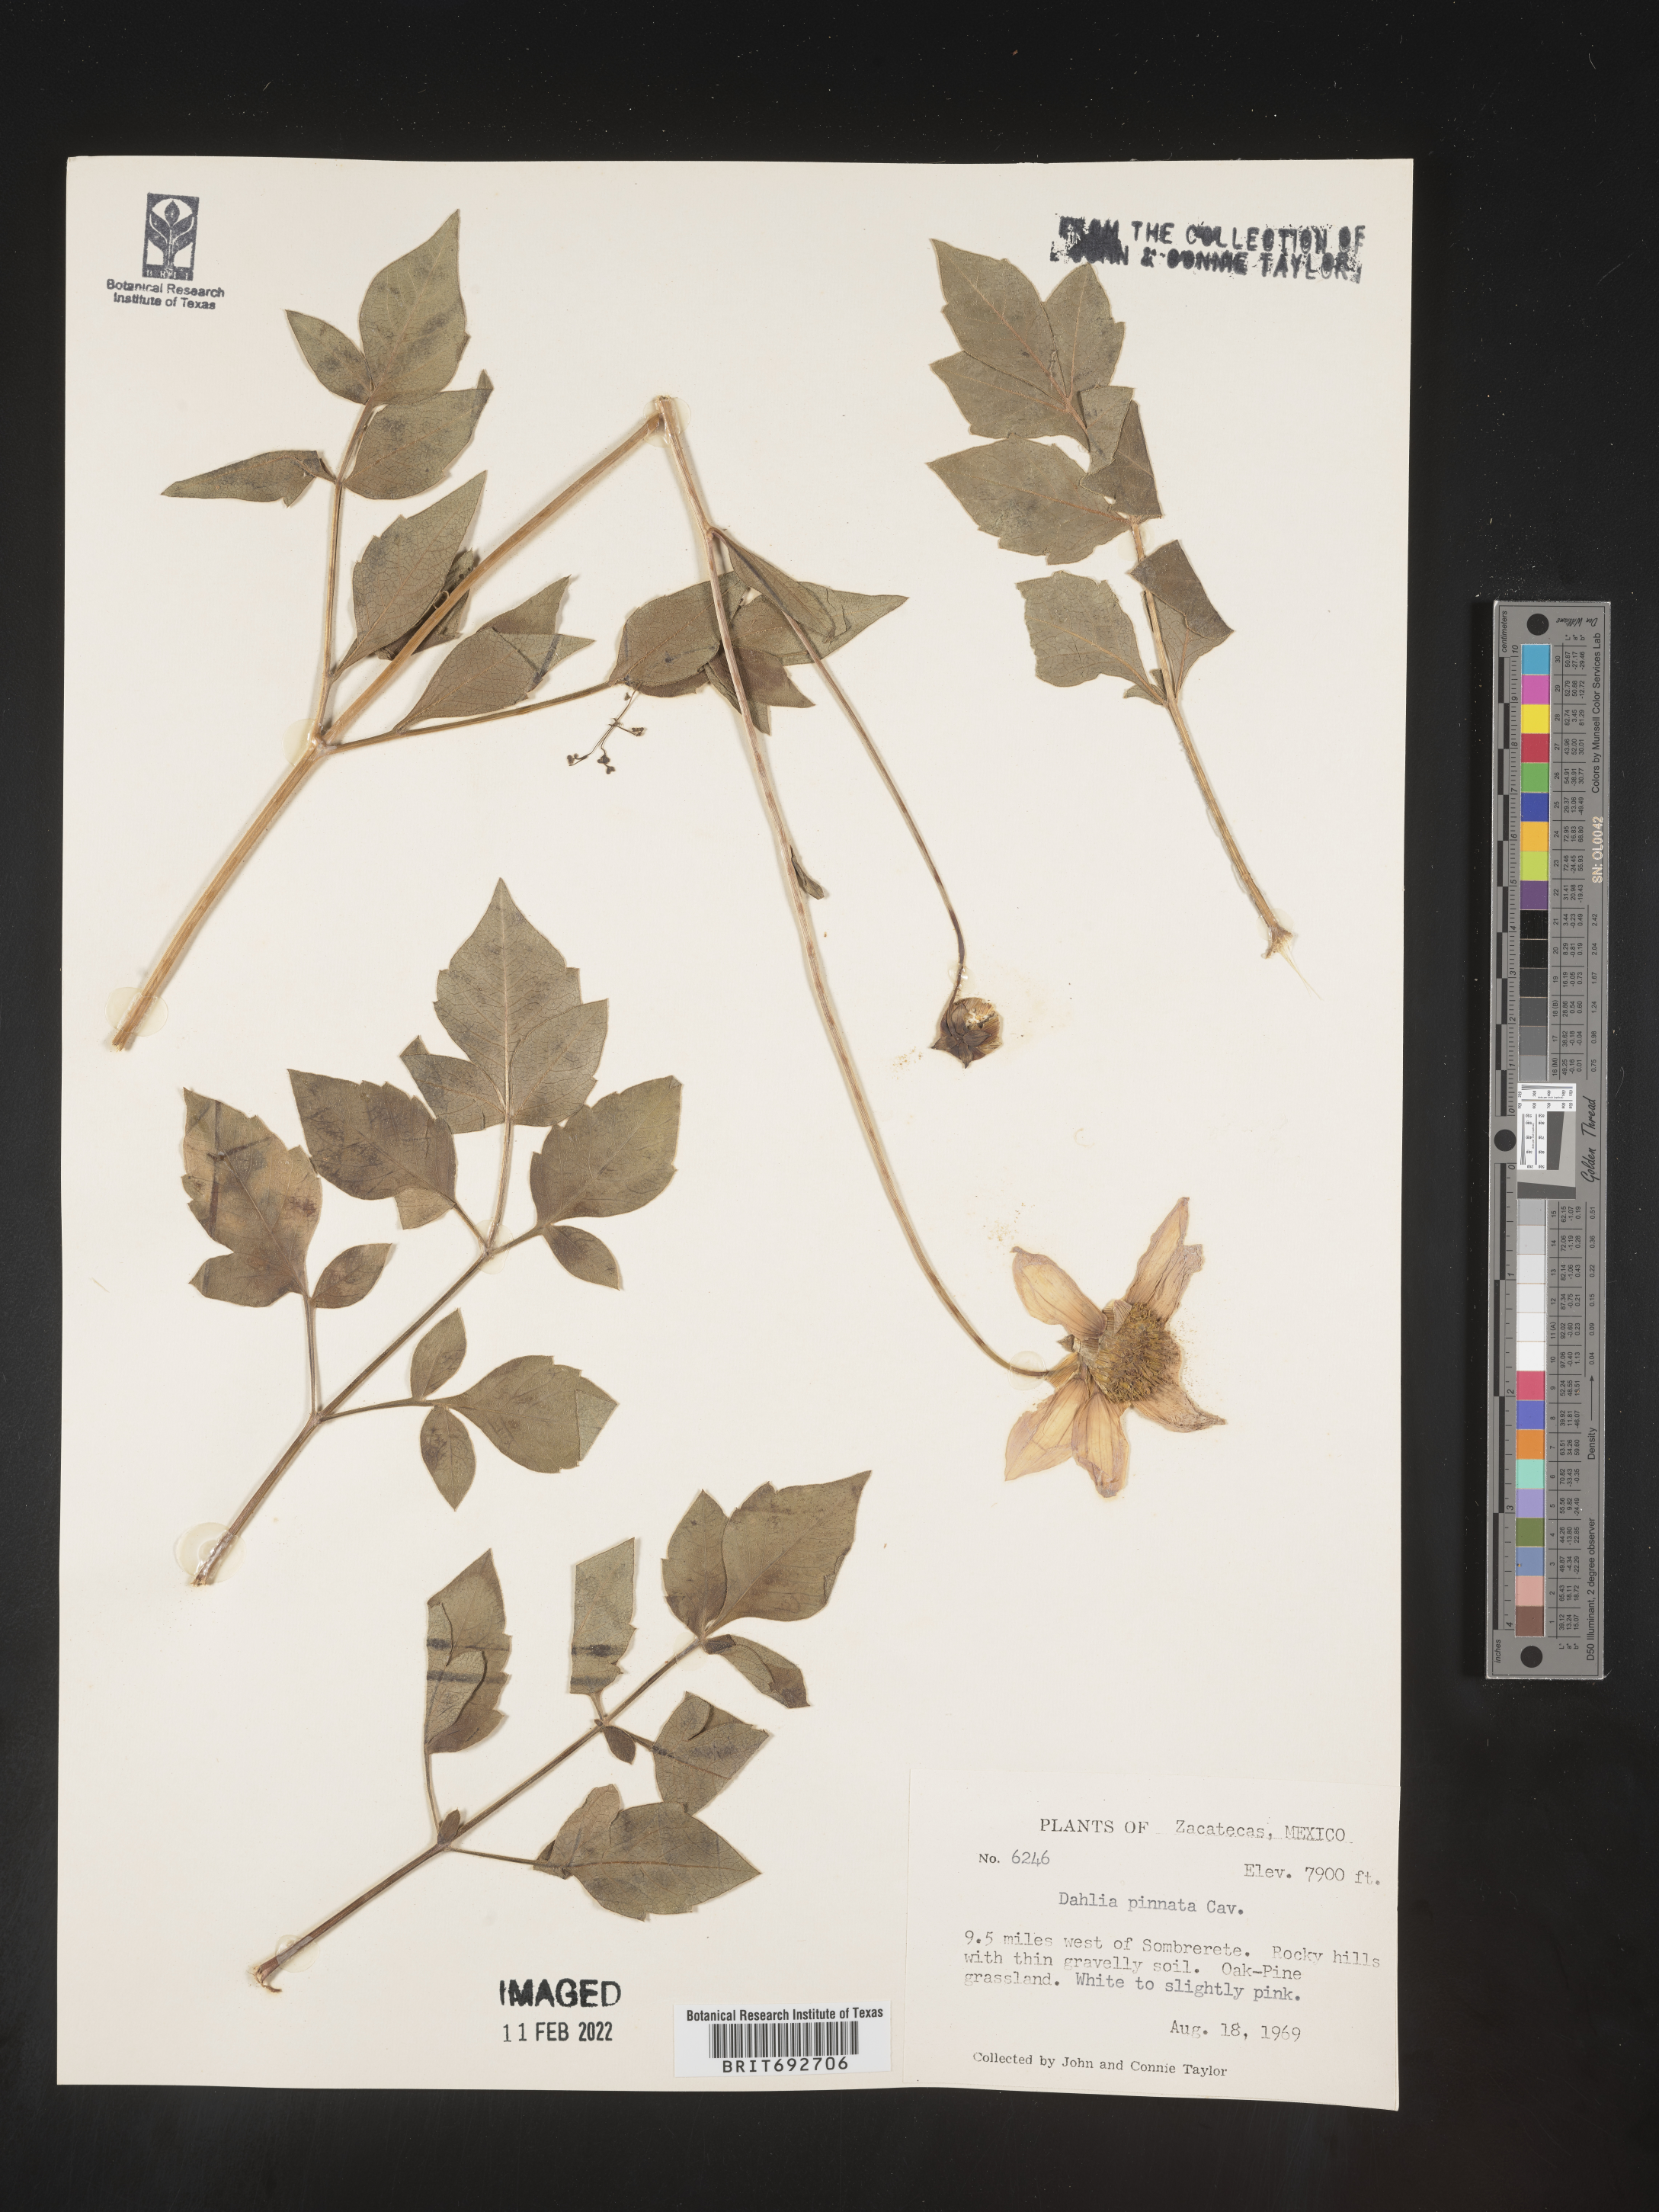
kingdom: Plantae
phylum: Tracheophyta
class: Magnoliopsida
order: Asterales
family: Asteraceae
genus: Dahlia
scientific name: Dahlia
